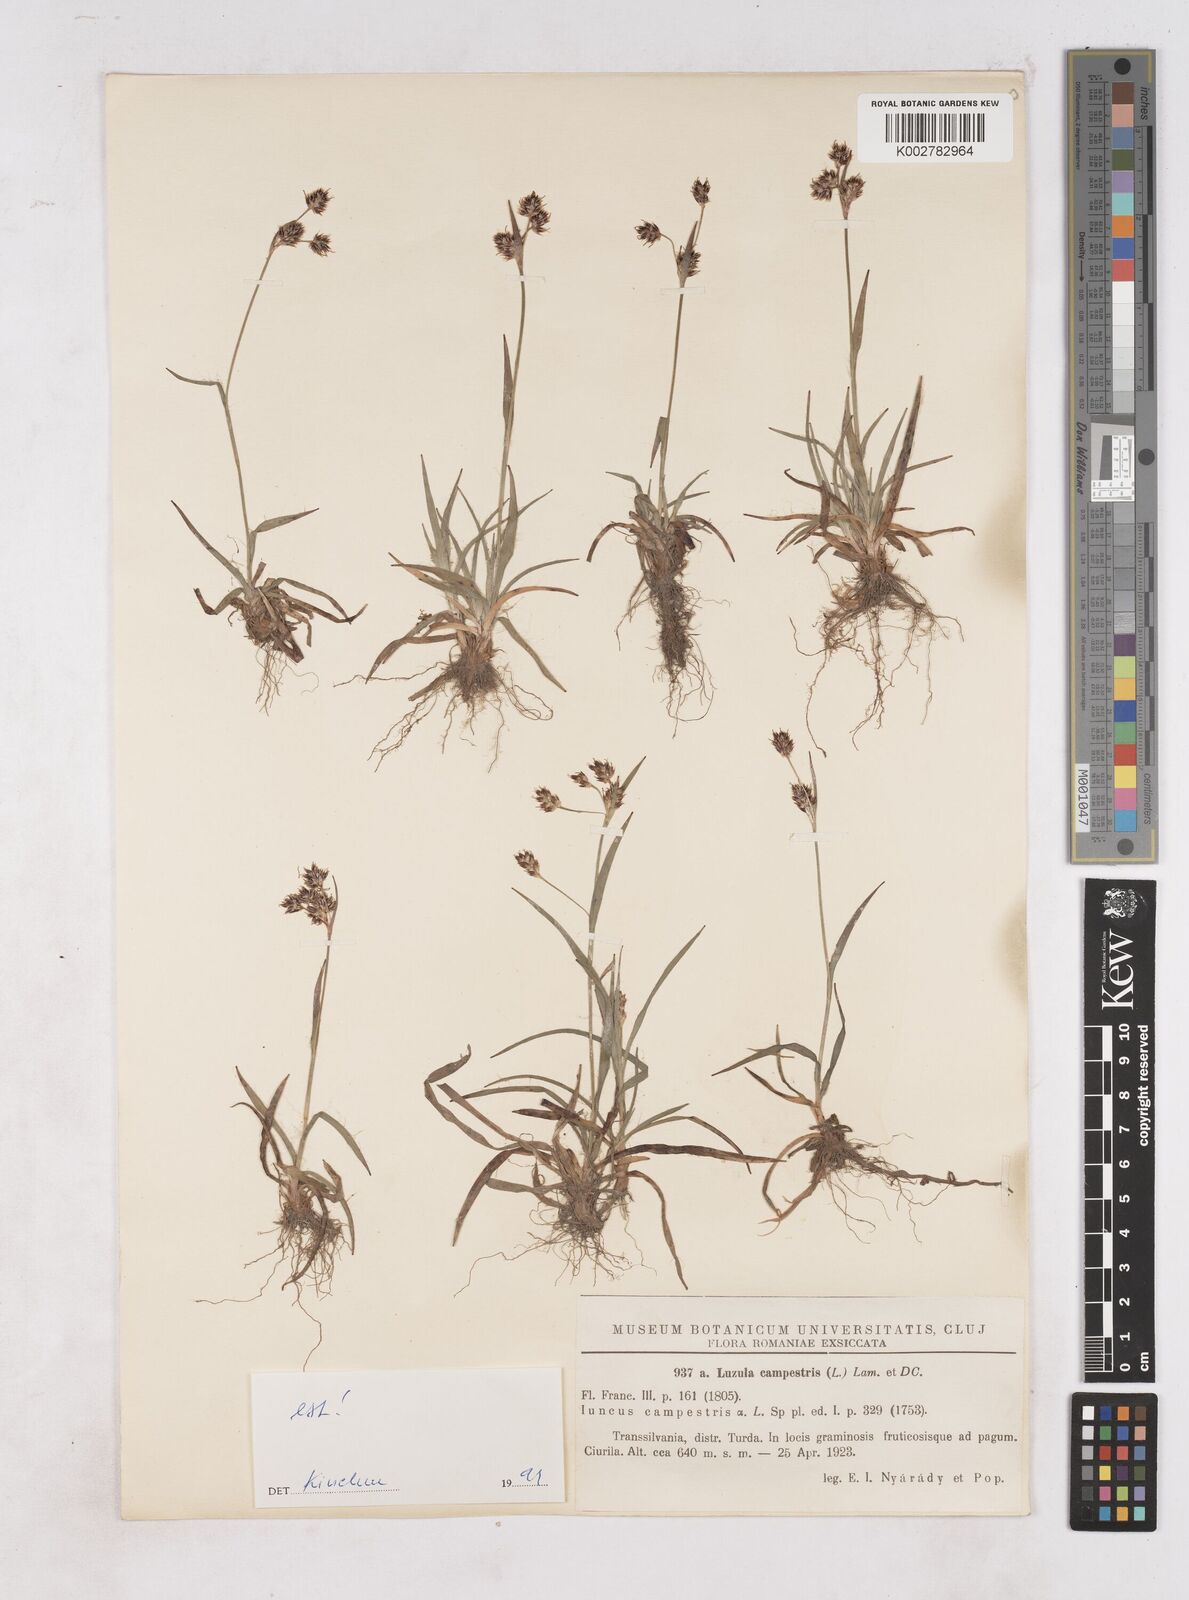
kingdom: Plantae
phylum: Tracheophyta
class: Liliopsida
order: Poales
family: Juncaceae
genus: Luzula
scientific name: Luzula campestris
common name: Field wood-rush
